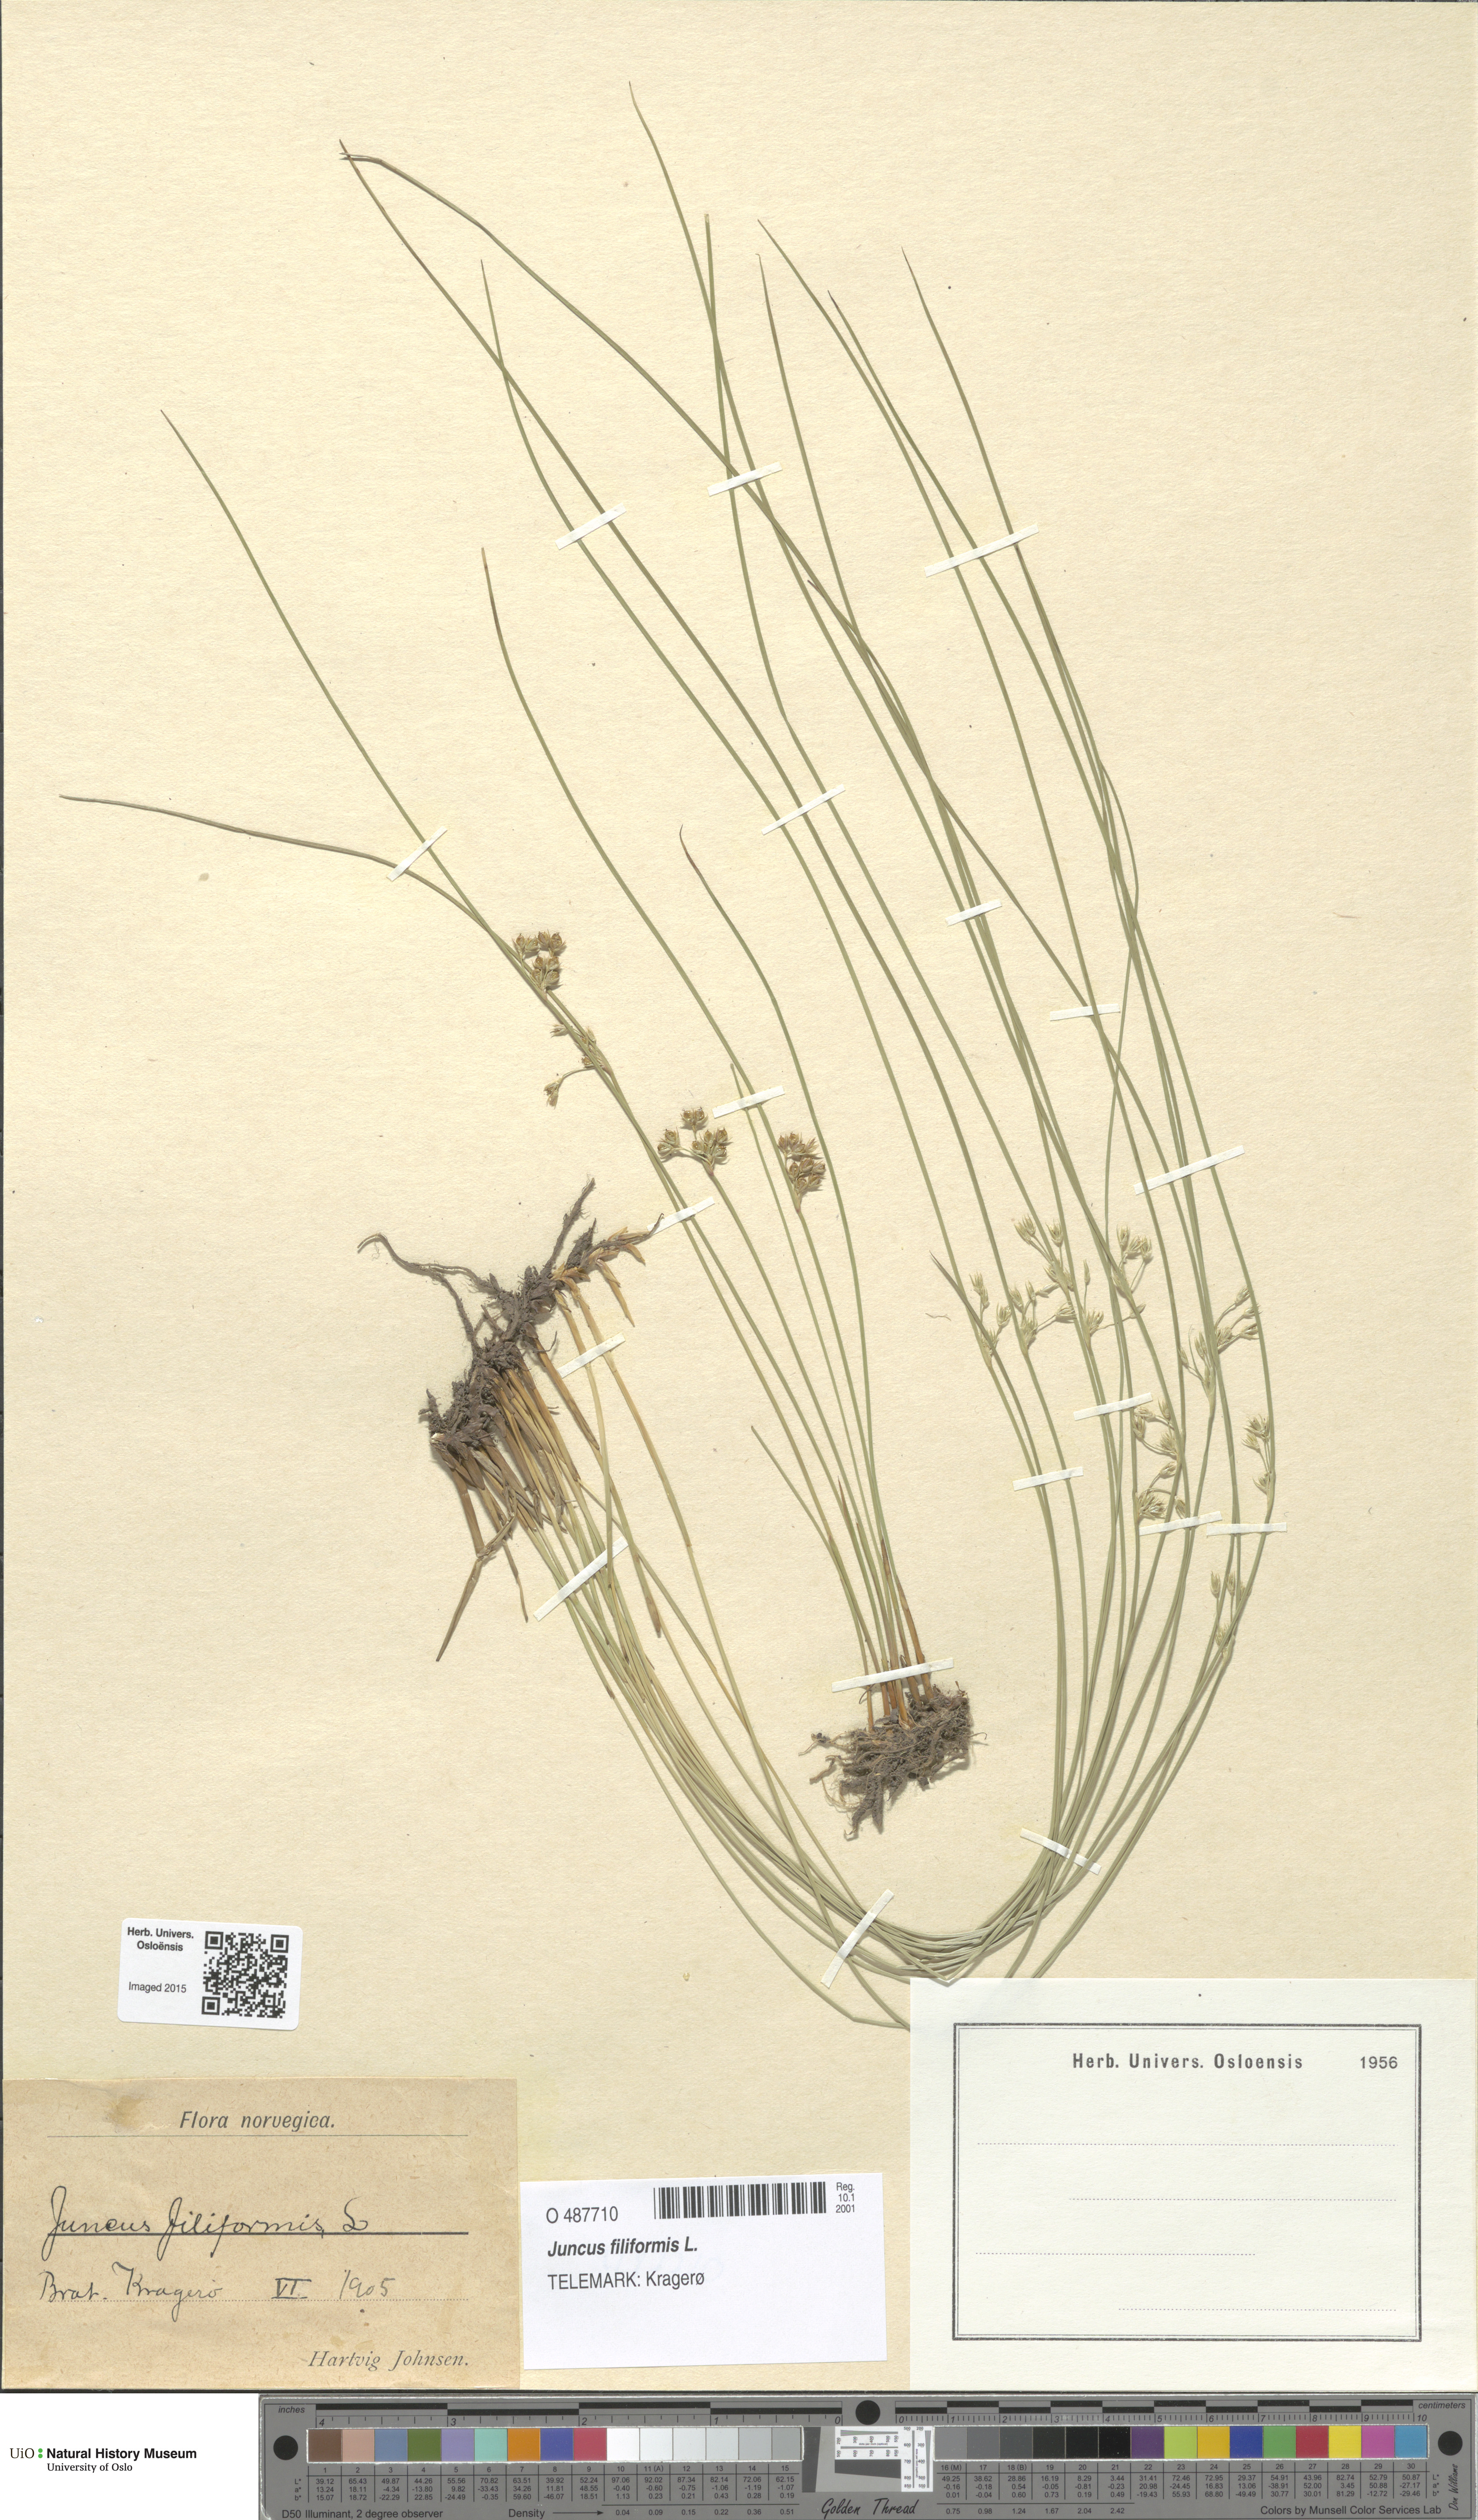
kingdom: Plantae
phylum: Tracheophyta
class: Liliopsida
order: Poales
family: Juncaceae
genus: Juncus
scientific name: Juncus filiformis
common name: Thread rush
